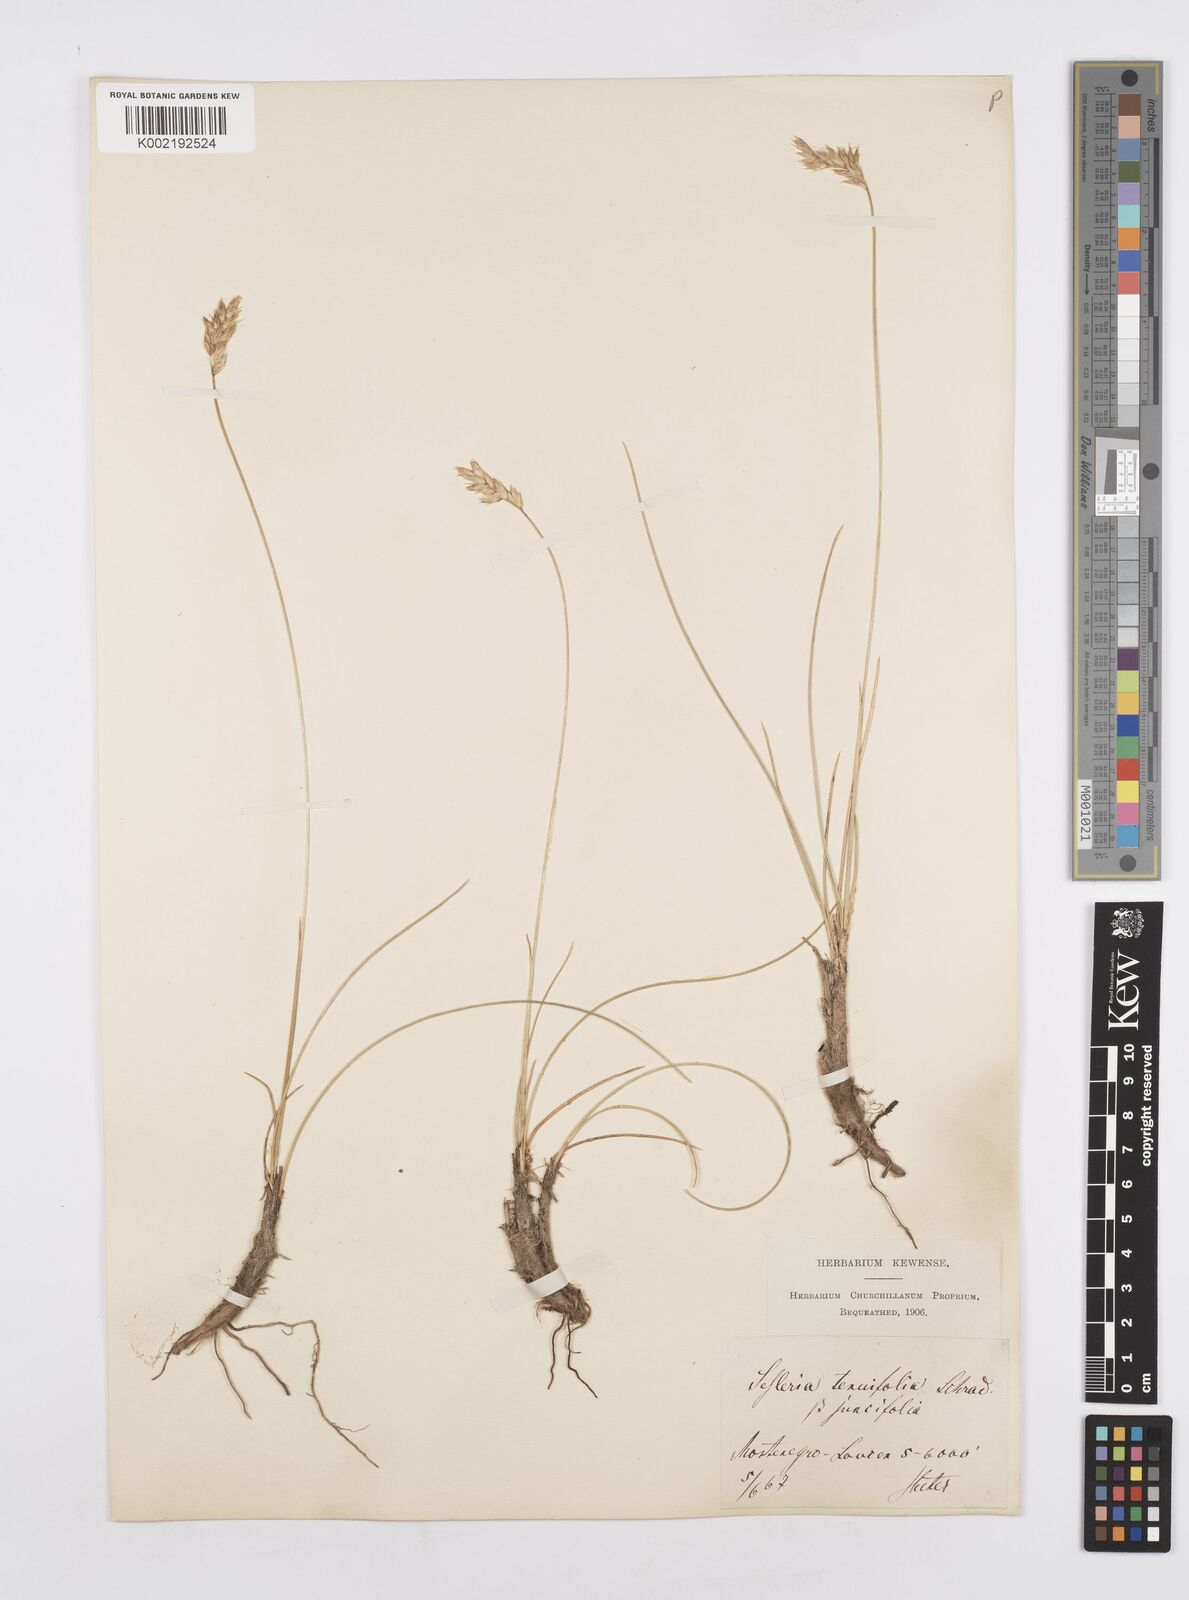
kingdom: Plantae
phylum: Tracheophyta
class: Liliopsida
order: Poales
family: Poaceae
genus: Sesleria
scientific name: Sesleria juncifolia
